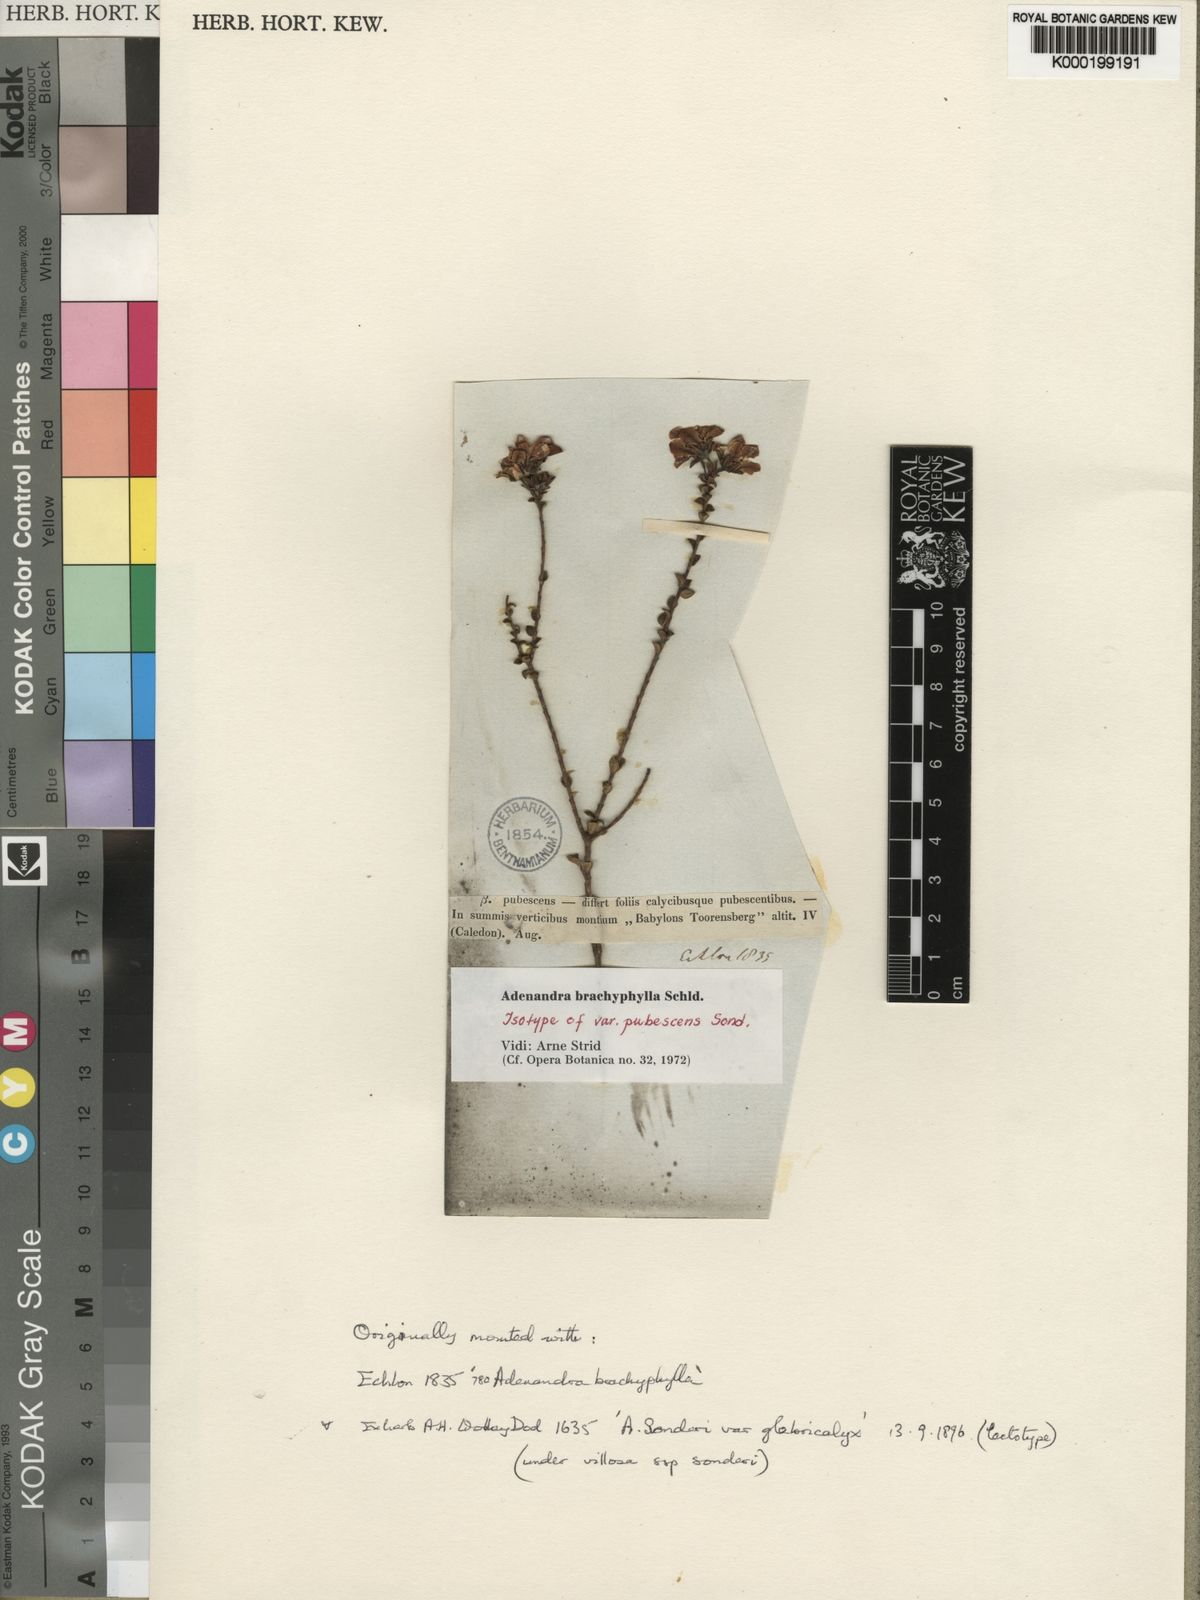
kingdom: Plantae
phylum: Tracheophyta
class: Magnoliopsida
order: Sapindales
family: Rutaceae
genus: Adenandra
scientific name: Adenandra brachyphylla
